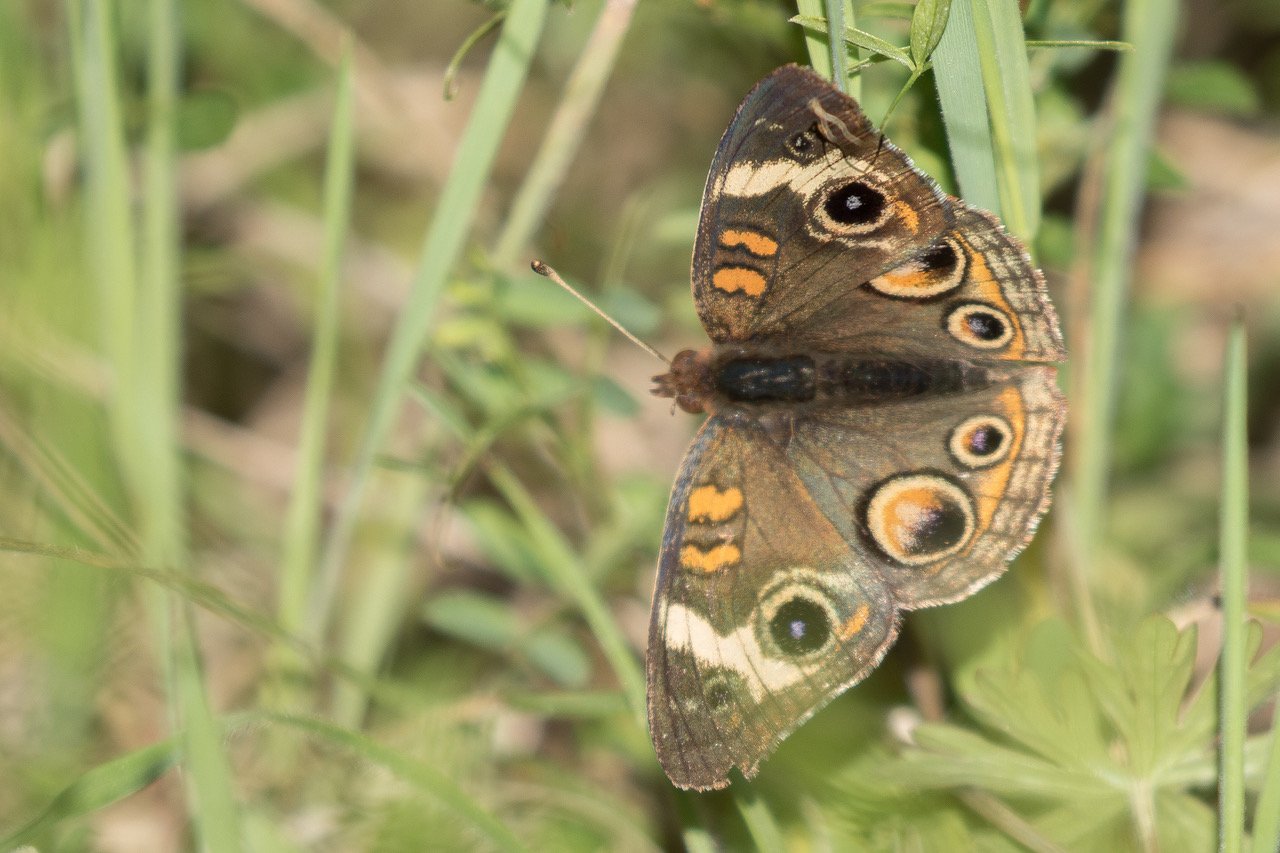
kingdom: Animalia
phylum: Arthropoda
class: Insecta
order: Lepidoptera
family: Nymphalidae
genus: Junonia
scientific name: Junonia coenia
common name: Common Buckeye
